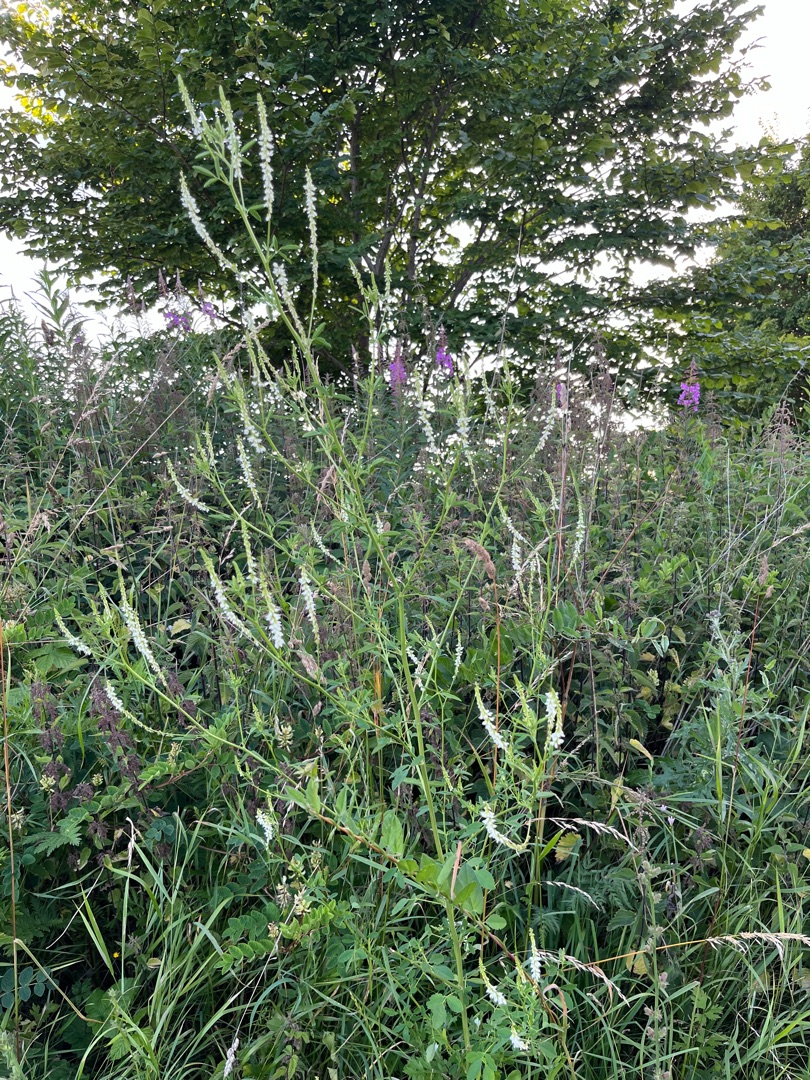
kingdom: Plantae
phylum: Tracheophyta
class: Magnoliopsida
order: Fabales
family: Fabaceae
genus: Melilotus
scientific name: Melilotus albus
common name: Hvid stenkløver
